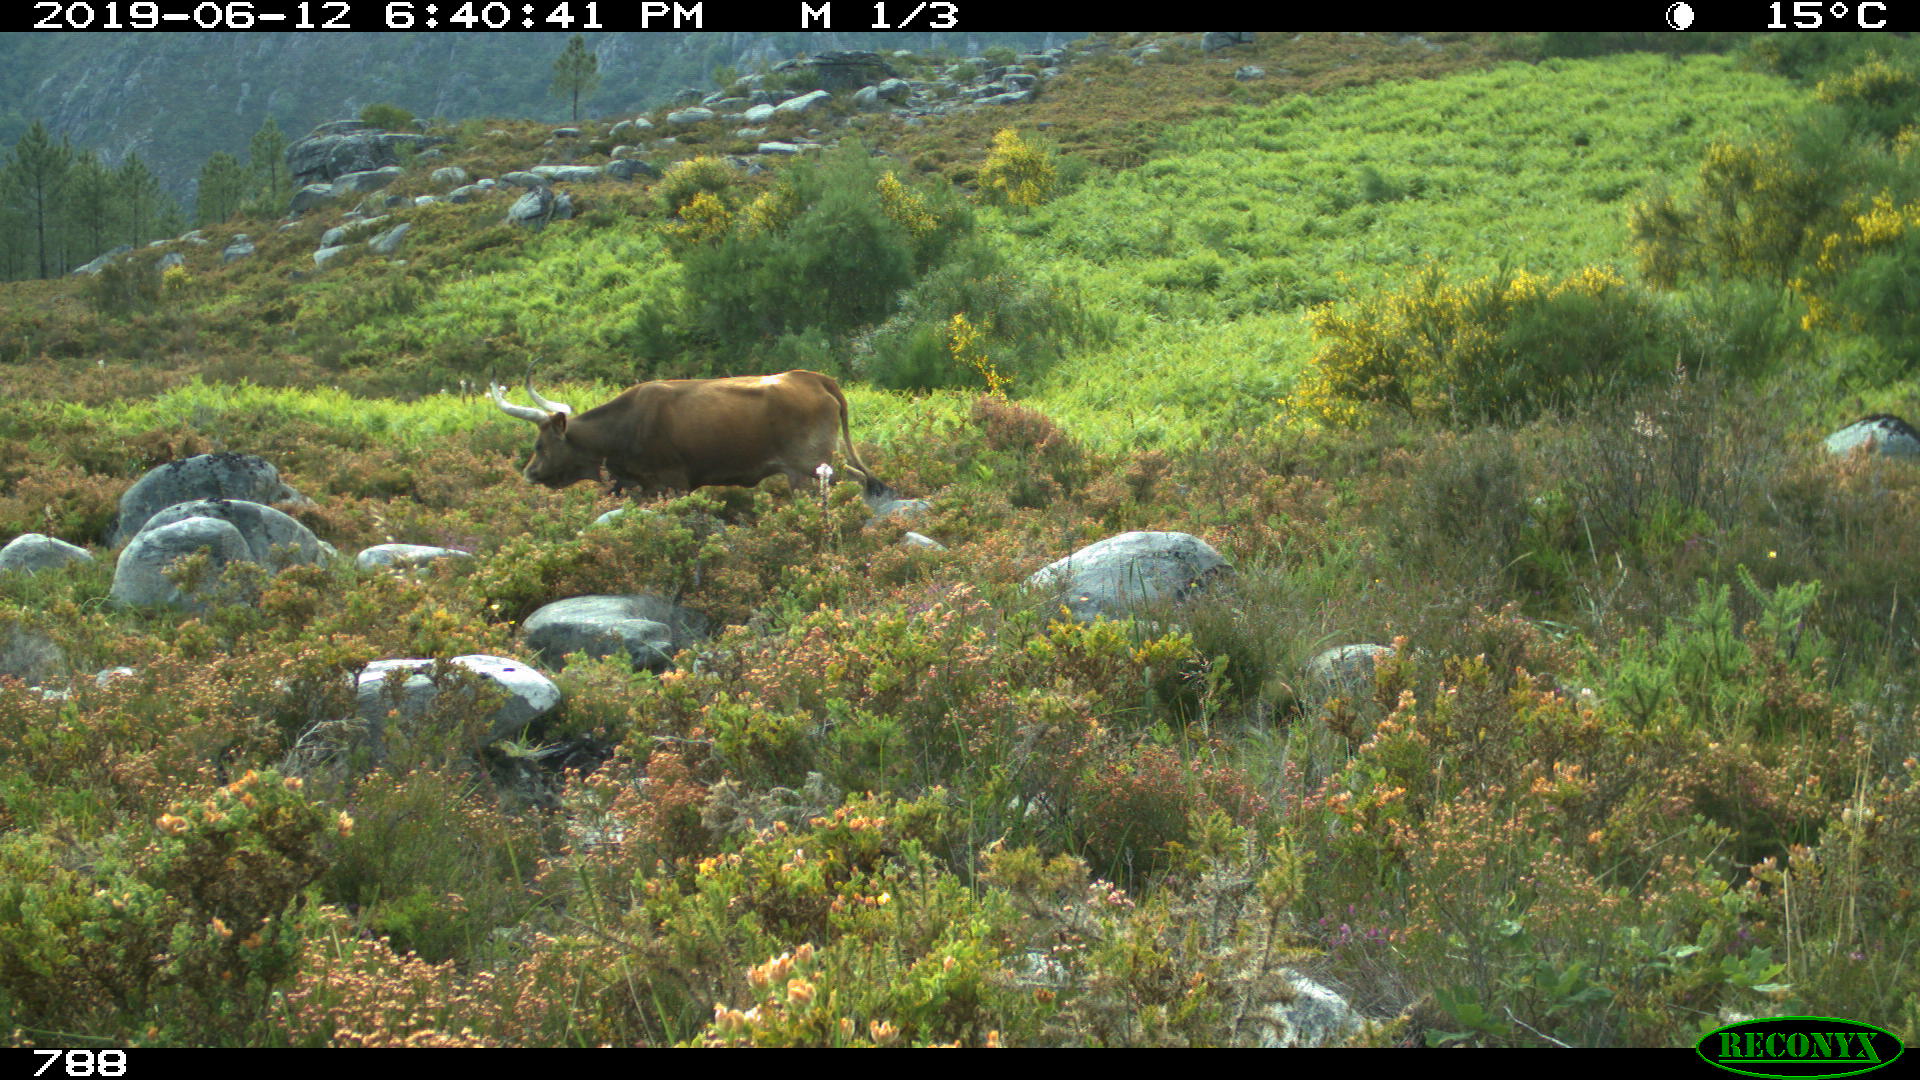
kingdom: Animalia
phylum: Chordata
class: Mammalia
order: Artiodactyla
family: Bovidae
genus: Bos
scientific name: Bos taurus
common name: Domesticated cattle
